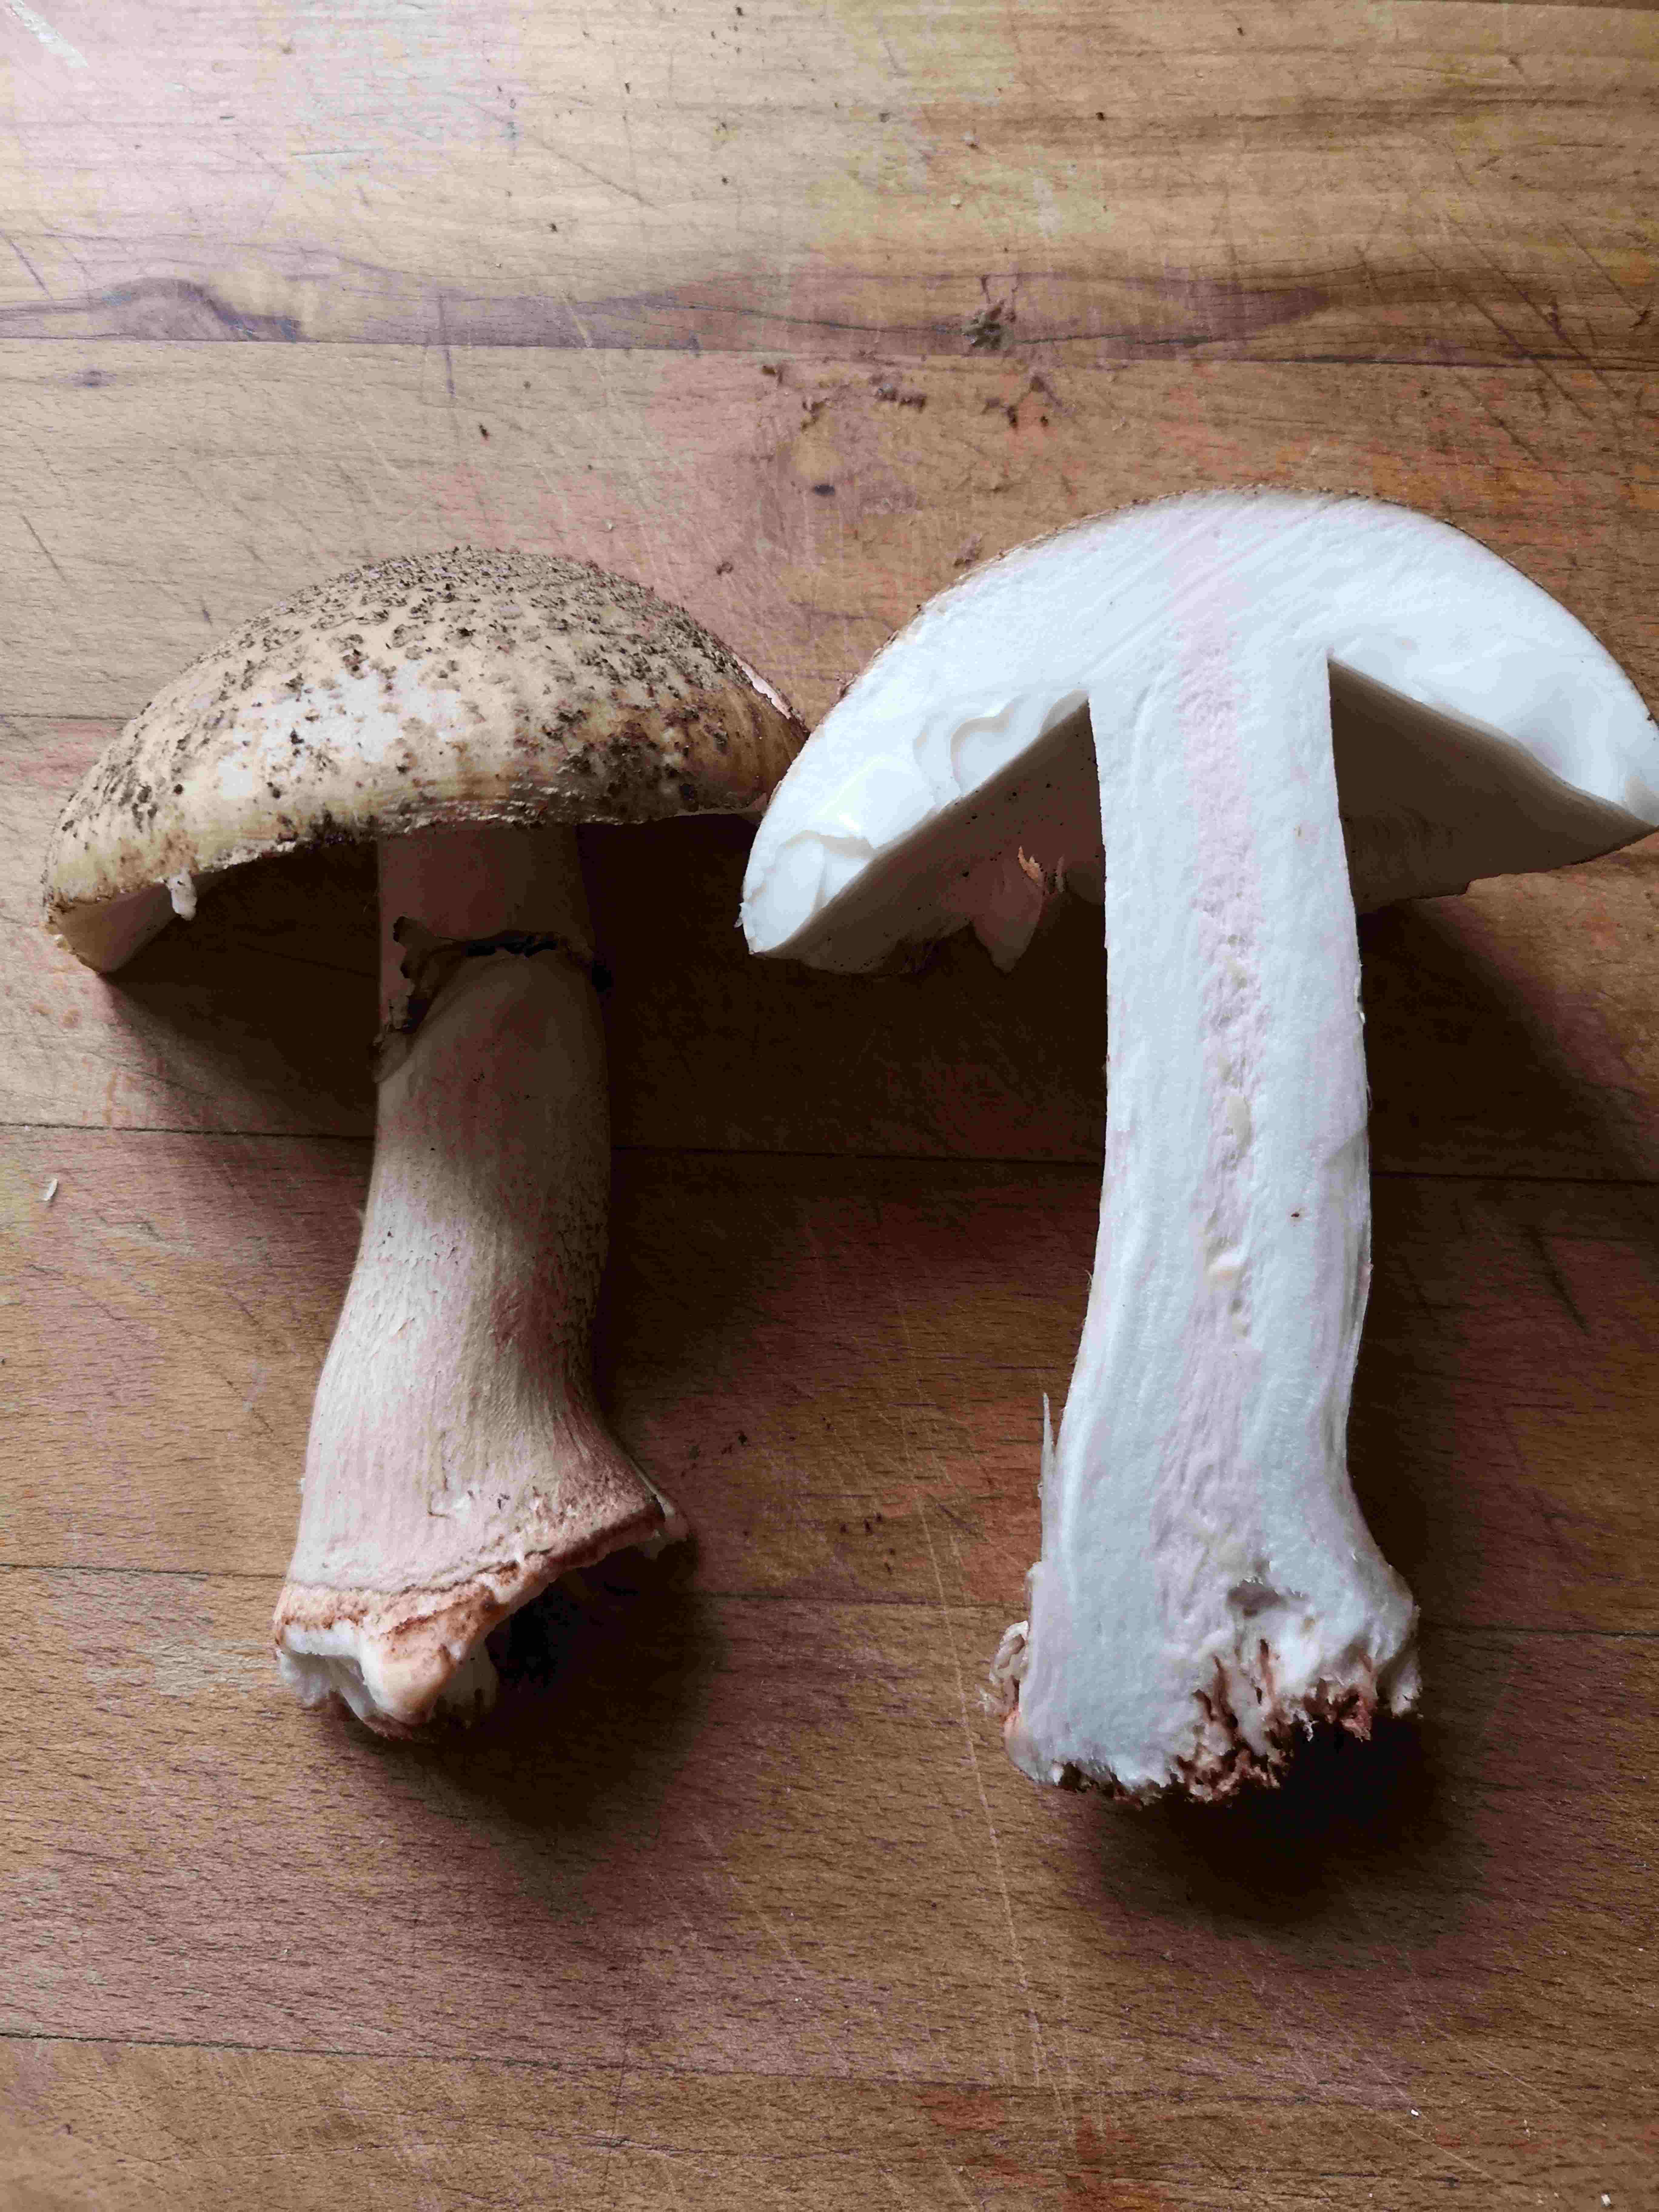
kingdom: Fungi
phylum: Basidiomycota
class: Agaricomycetes
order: Agaricales
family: Amanitaceae
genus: Amanita
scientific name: Amanita rubescens
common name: rødmende fluesvamp
